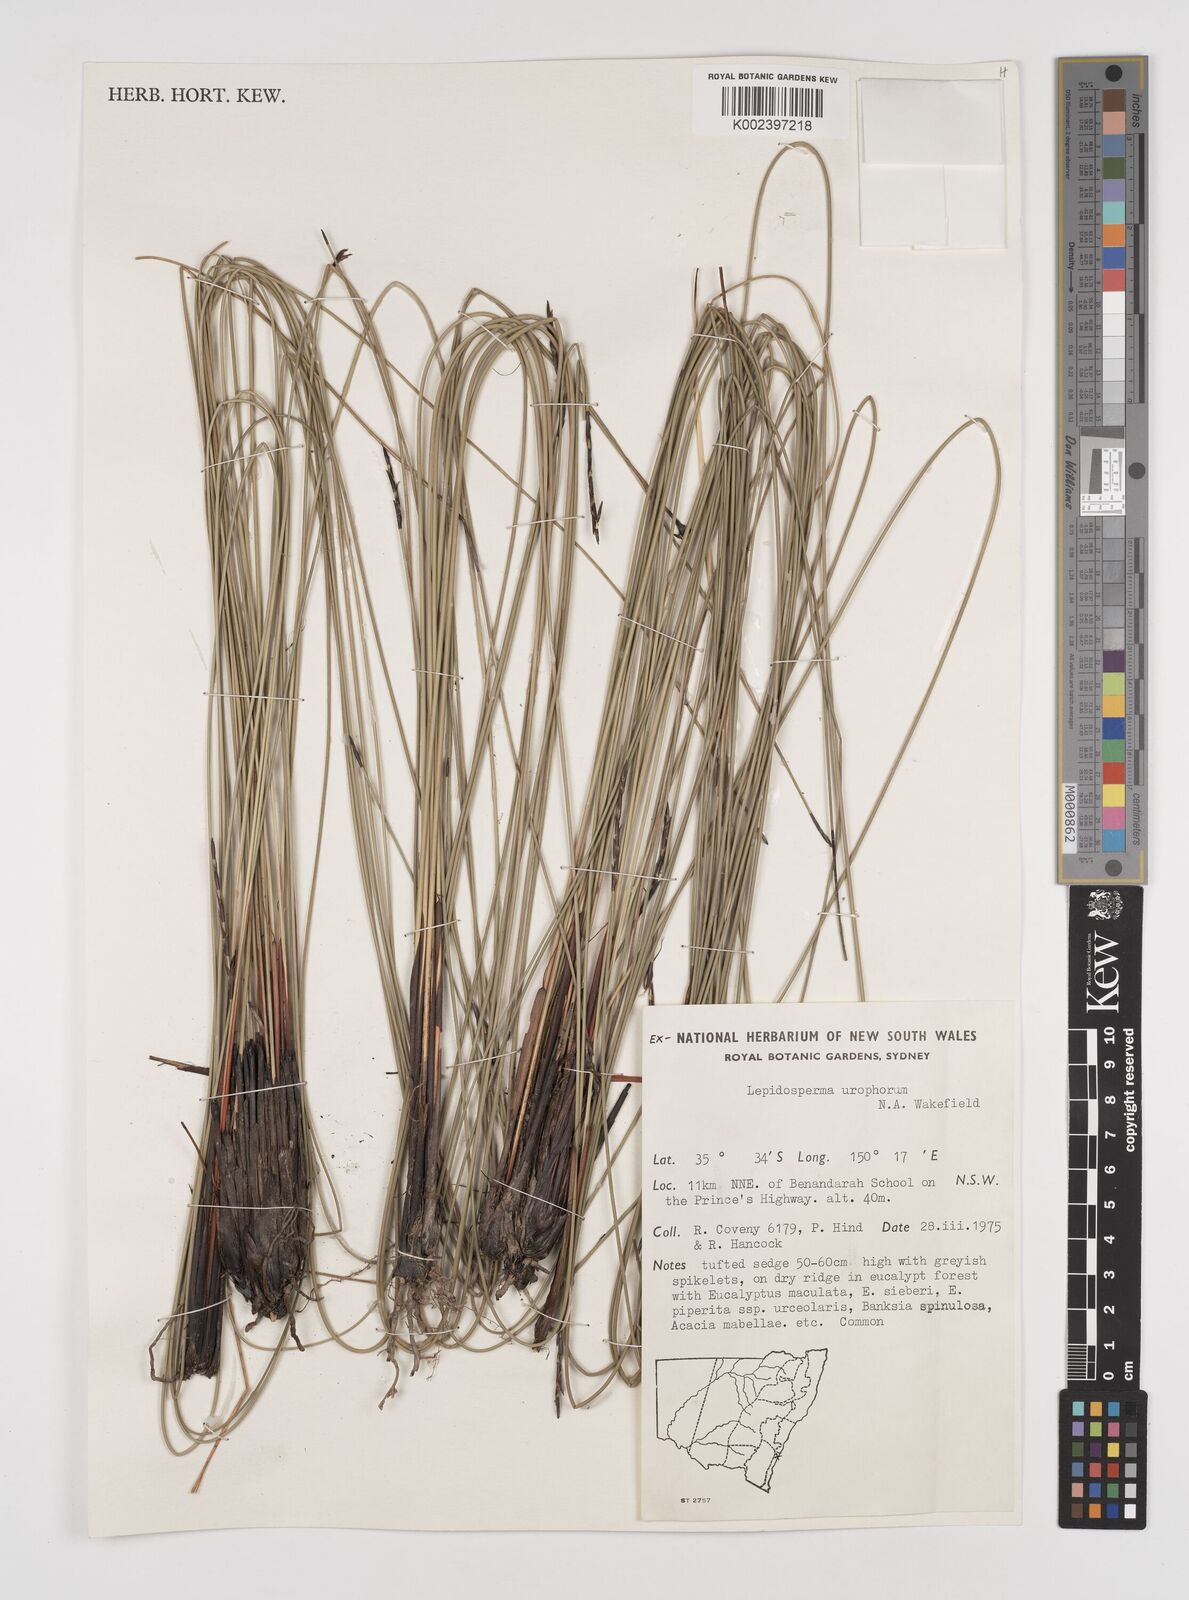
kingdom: Plantae
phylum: Tracheophyta
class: Liliopsida
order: Poales
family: Cyperaceae
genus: Lepidosperma
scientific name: Lepidosperma urophorum
